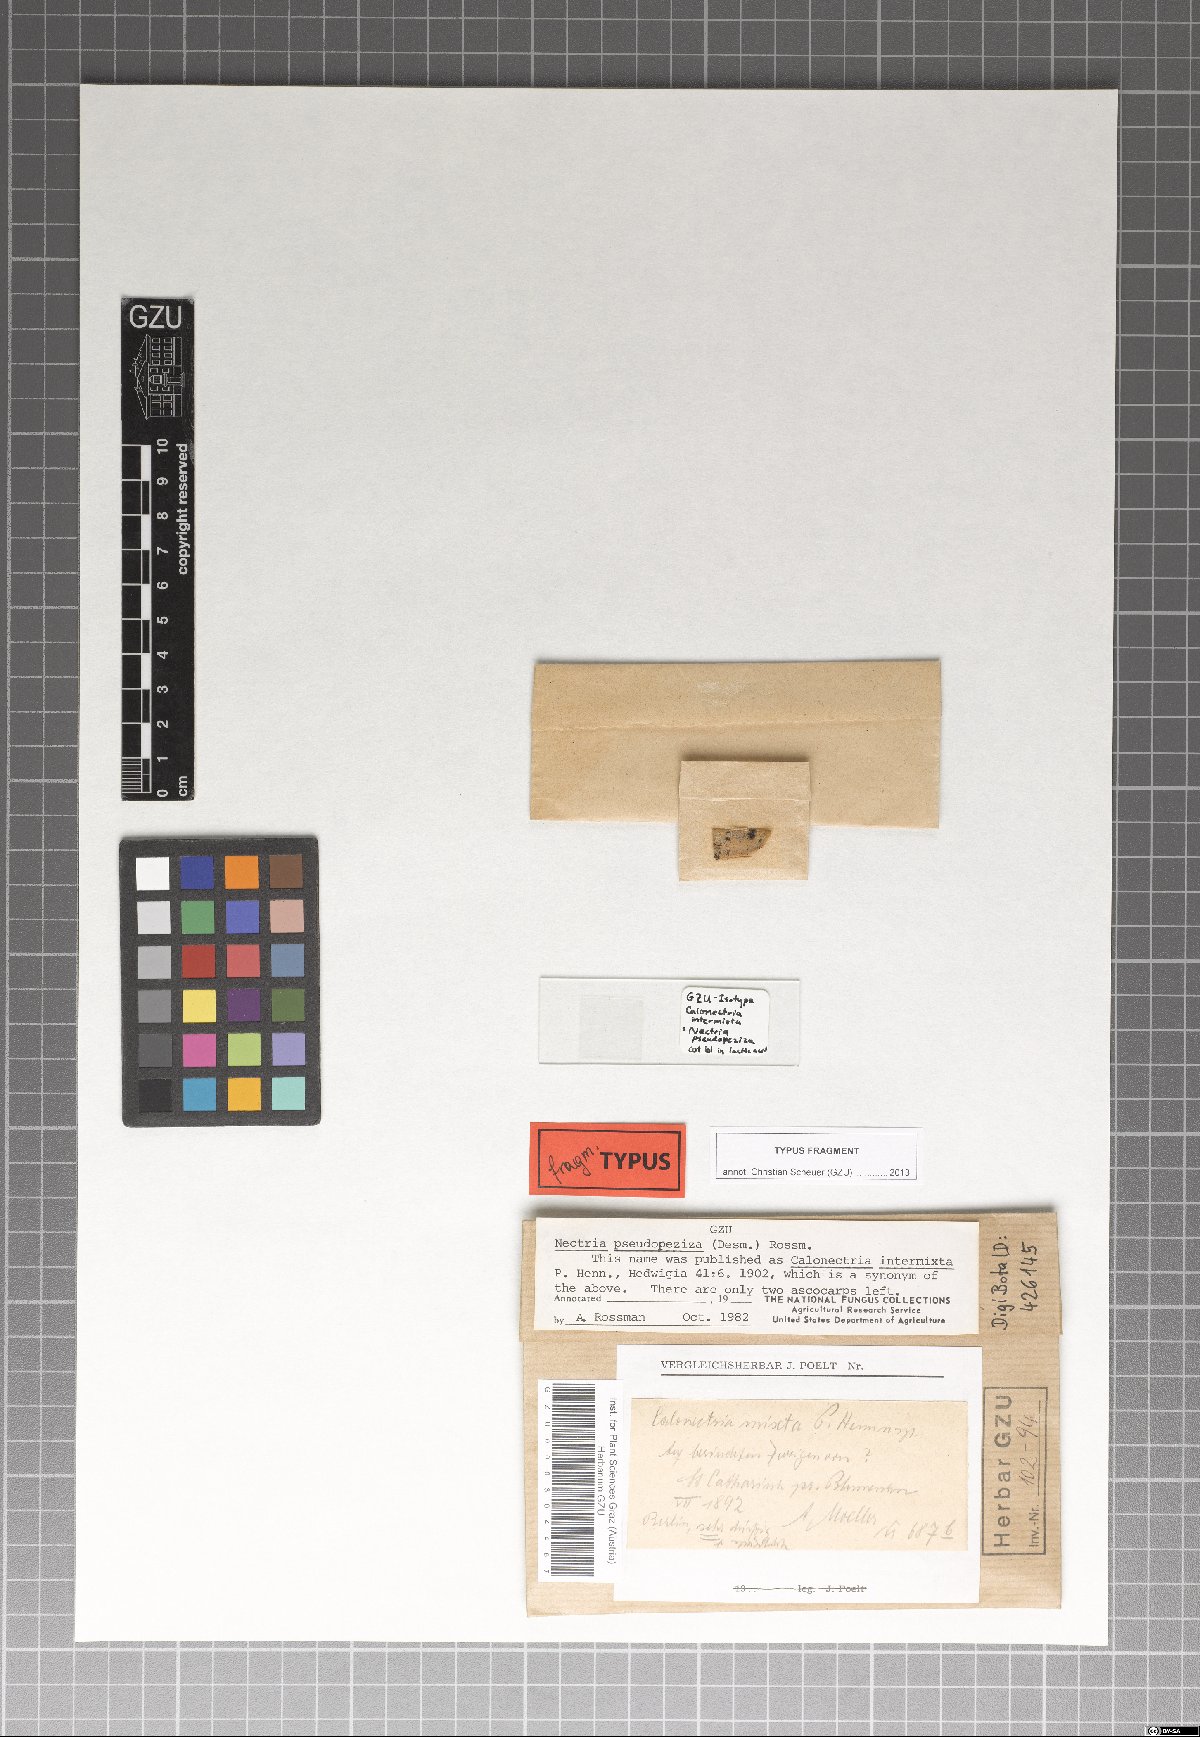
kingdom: Fungi
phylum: Ascomycota
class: Sordariomycetes
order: Hypocreales
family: Bionectriaceae
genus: Xanthonectria
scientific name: Xanthonectria pseudopeziza
